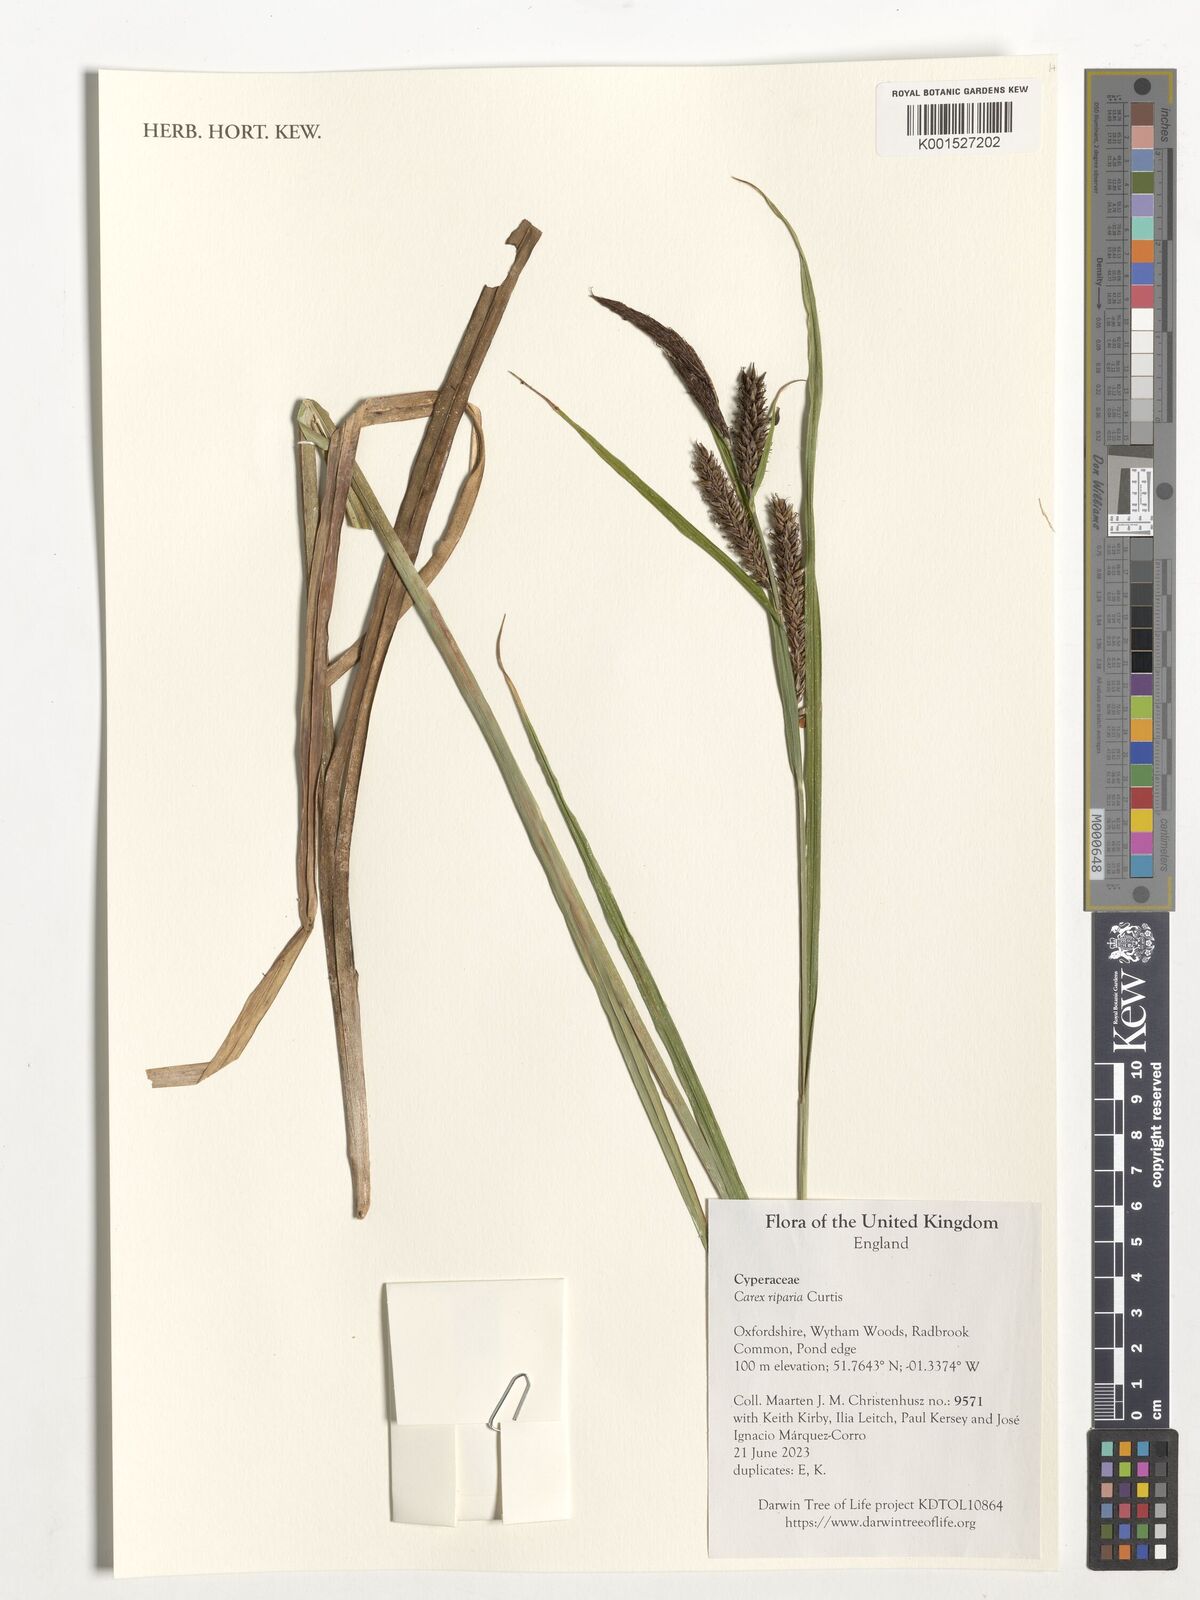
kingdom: Plantae
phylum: Tracheophyta
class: Liliopsida
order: Poales
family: Cyperaceae
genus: Carex
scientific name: Carex riparia
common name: Greater pond-sedge
